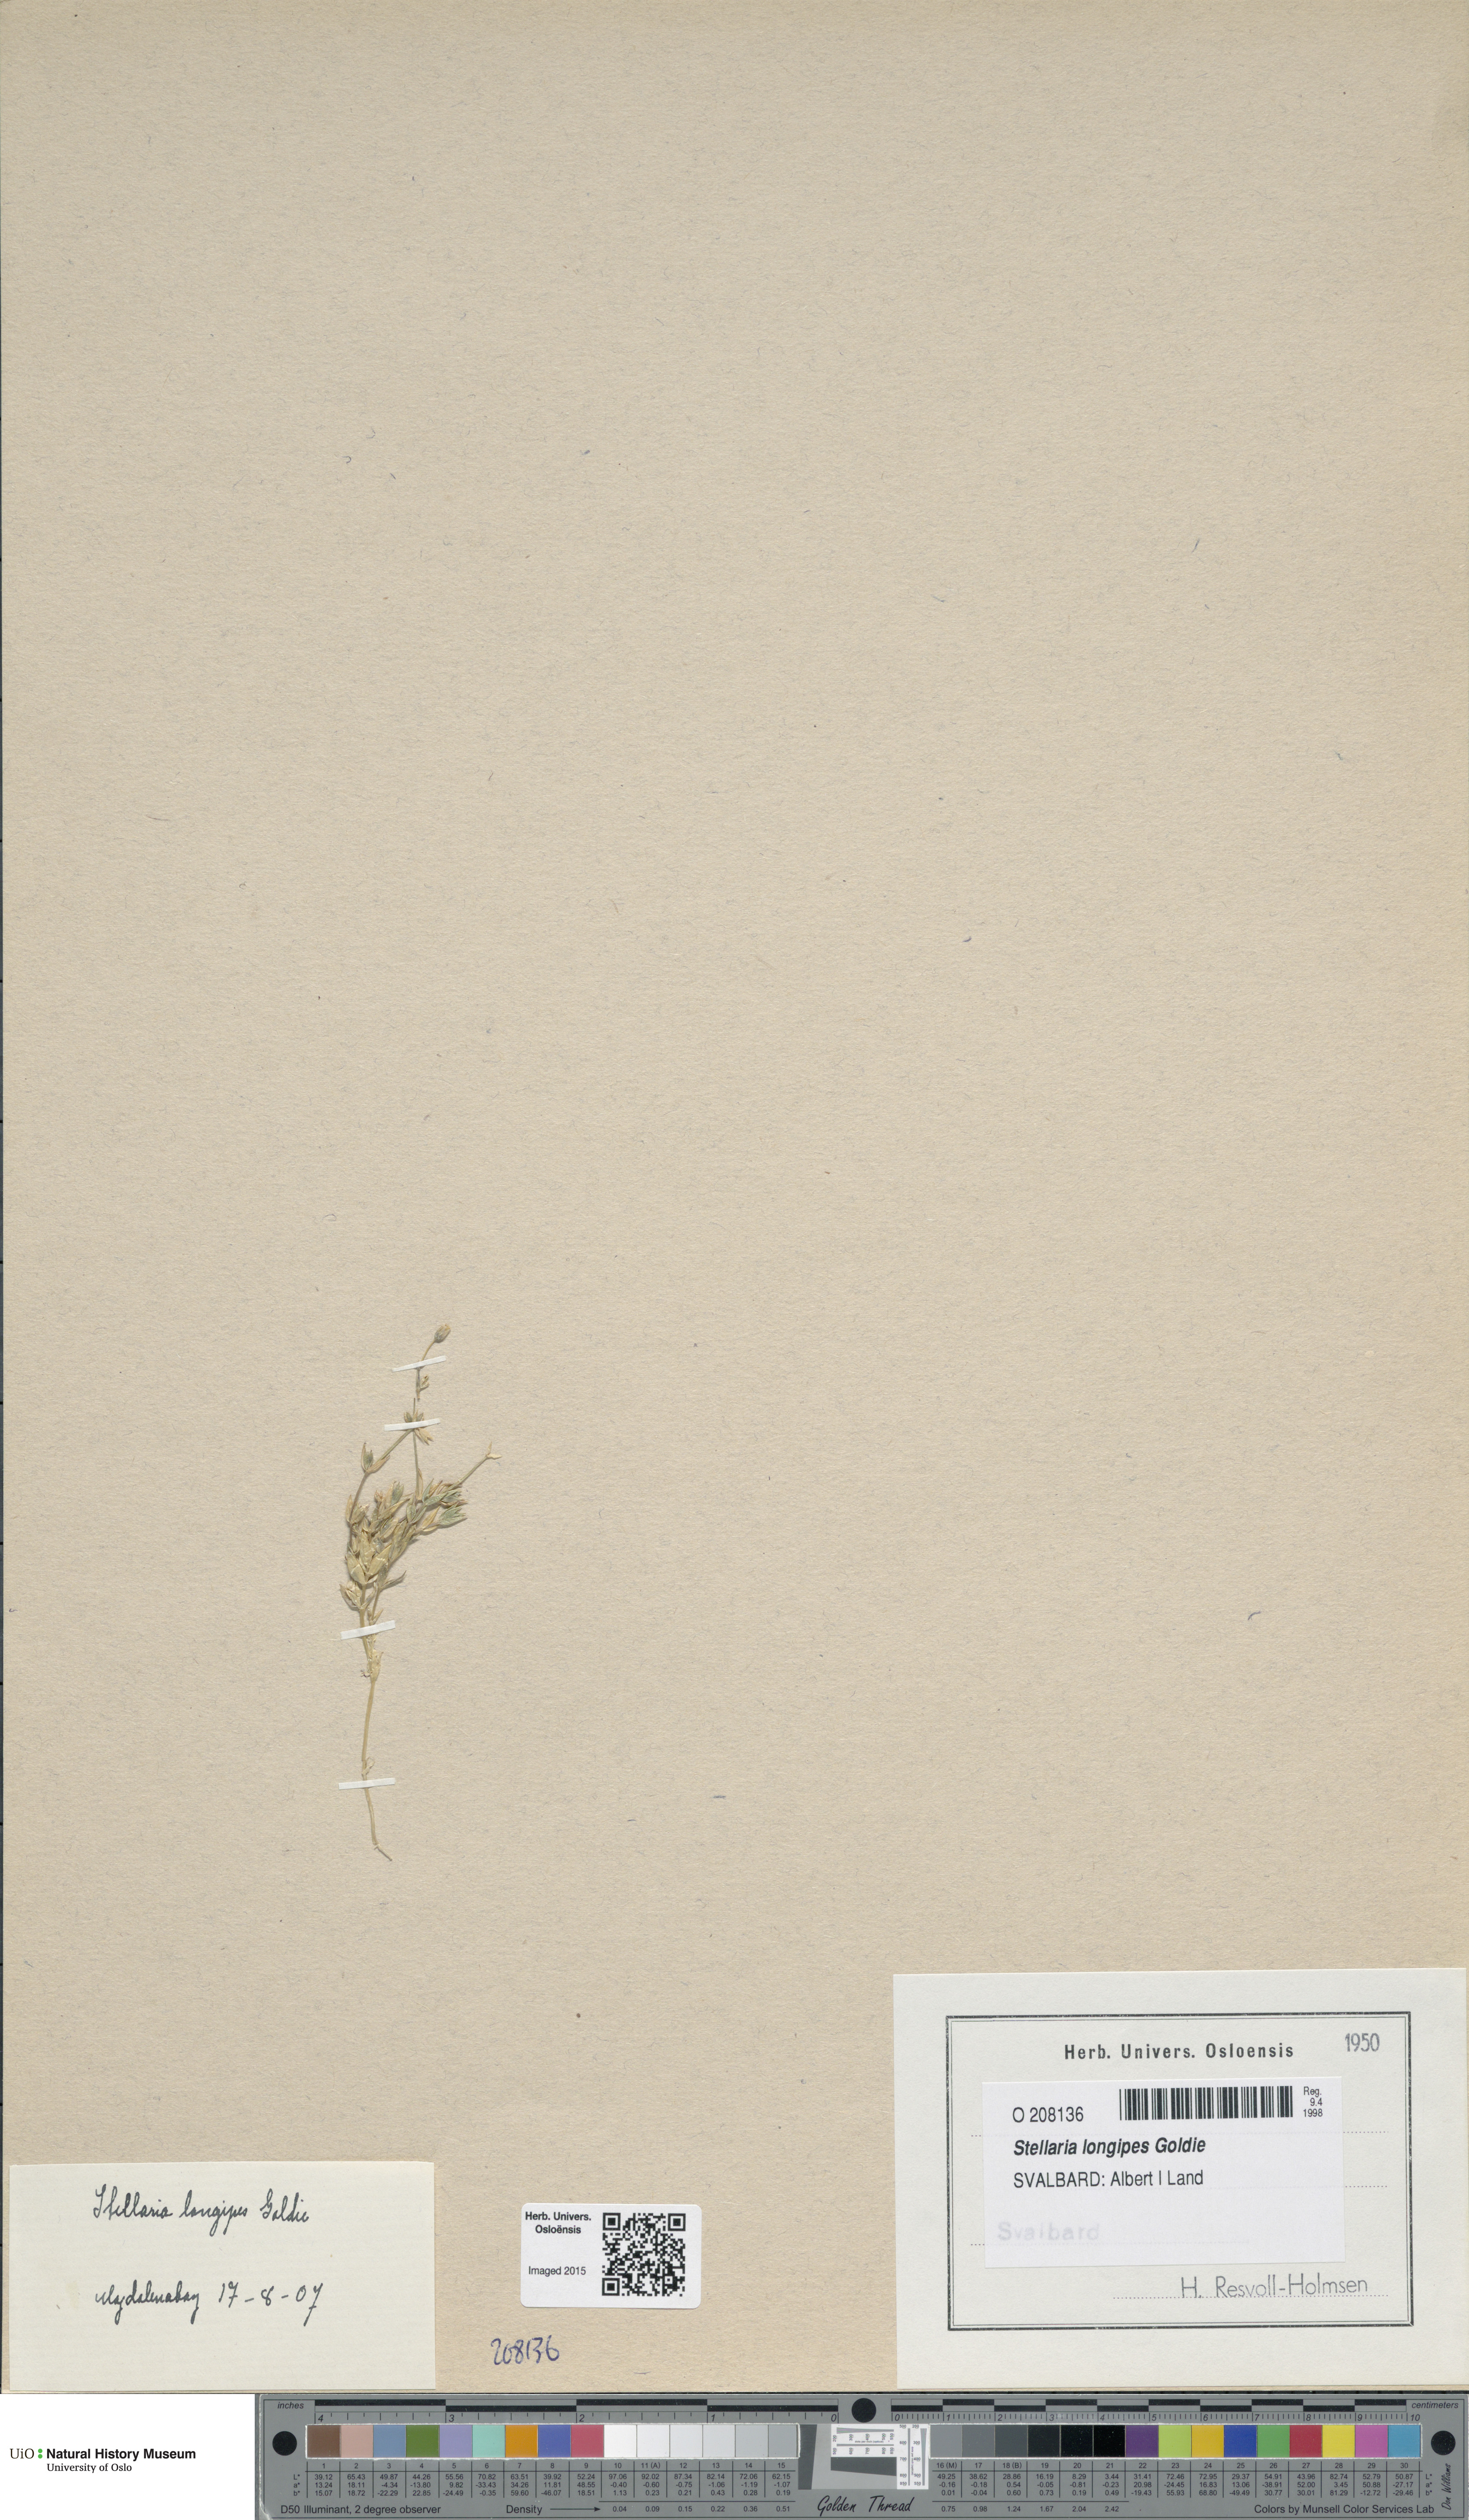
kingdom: Plantae
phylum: Tracheophyta
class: Magnoliopsida
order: Caryophyllales
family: Caryophyllaceae
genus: Stellaria
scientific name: Stellaria longipes
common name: Goldie's starwort
